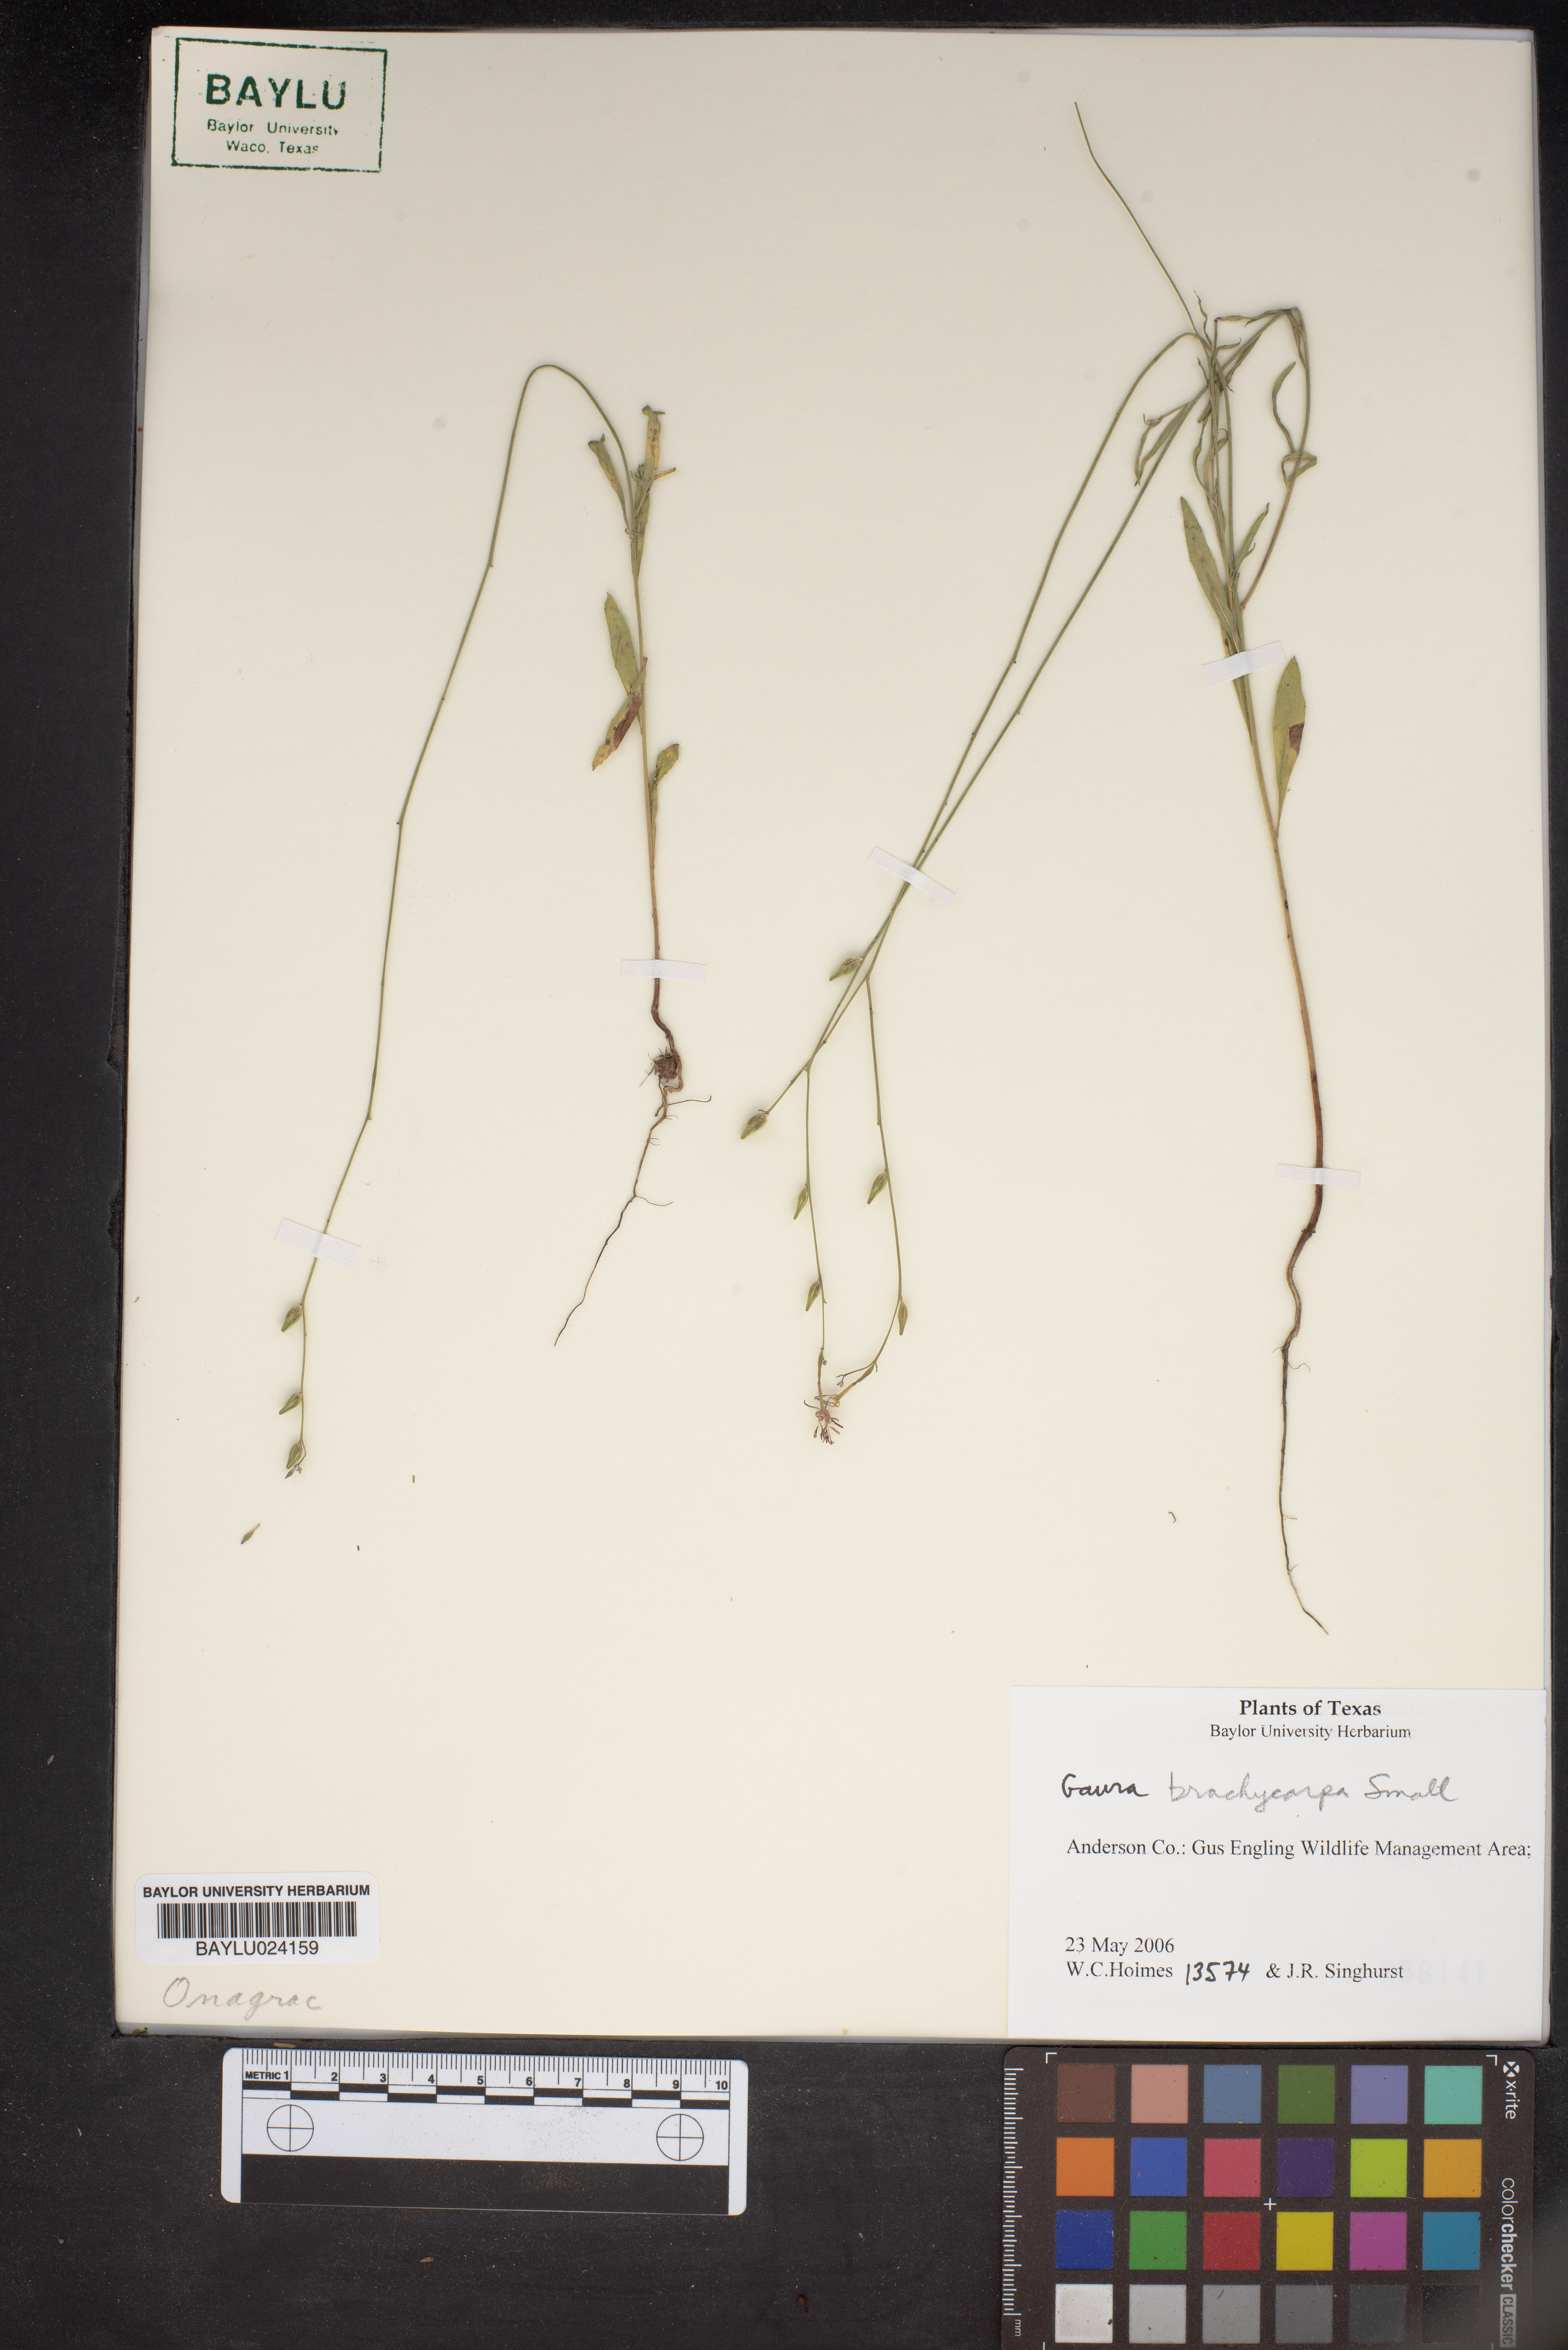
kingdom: Plantae
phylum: Tracheophyta
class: Magnoliopsida
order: Myrtales
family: Onagraceae
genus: Oenothera
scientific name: Oenothera patriciae
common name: Plains beeblossom
